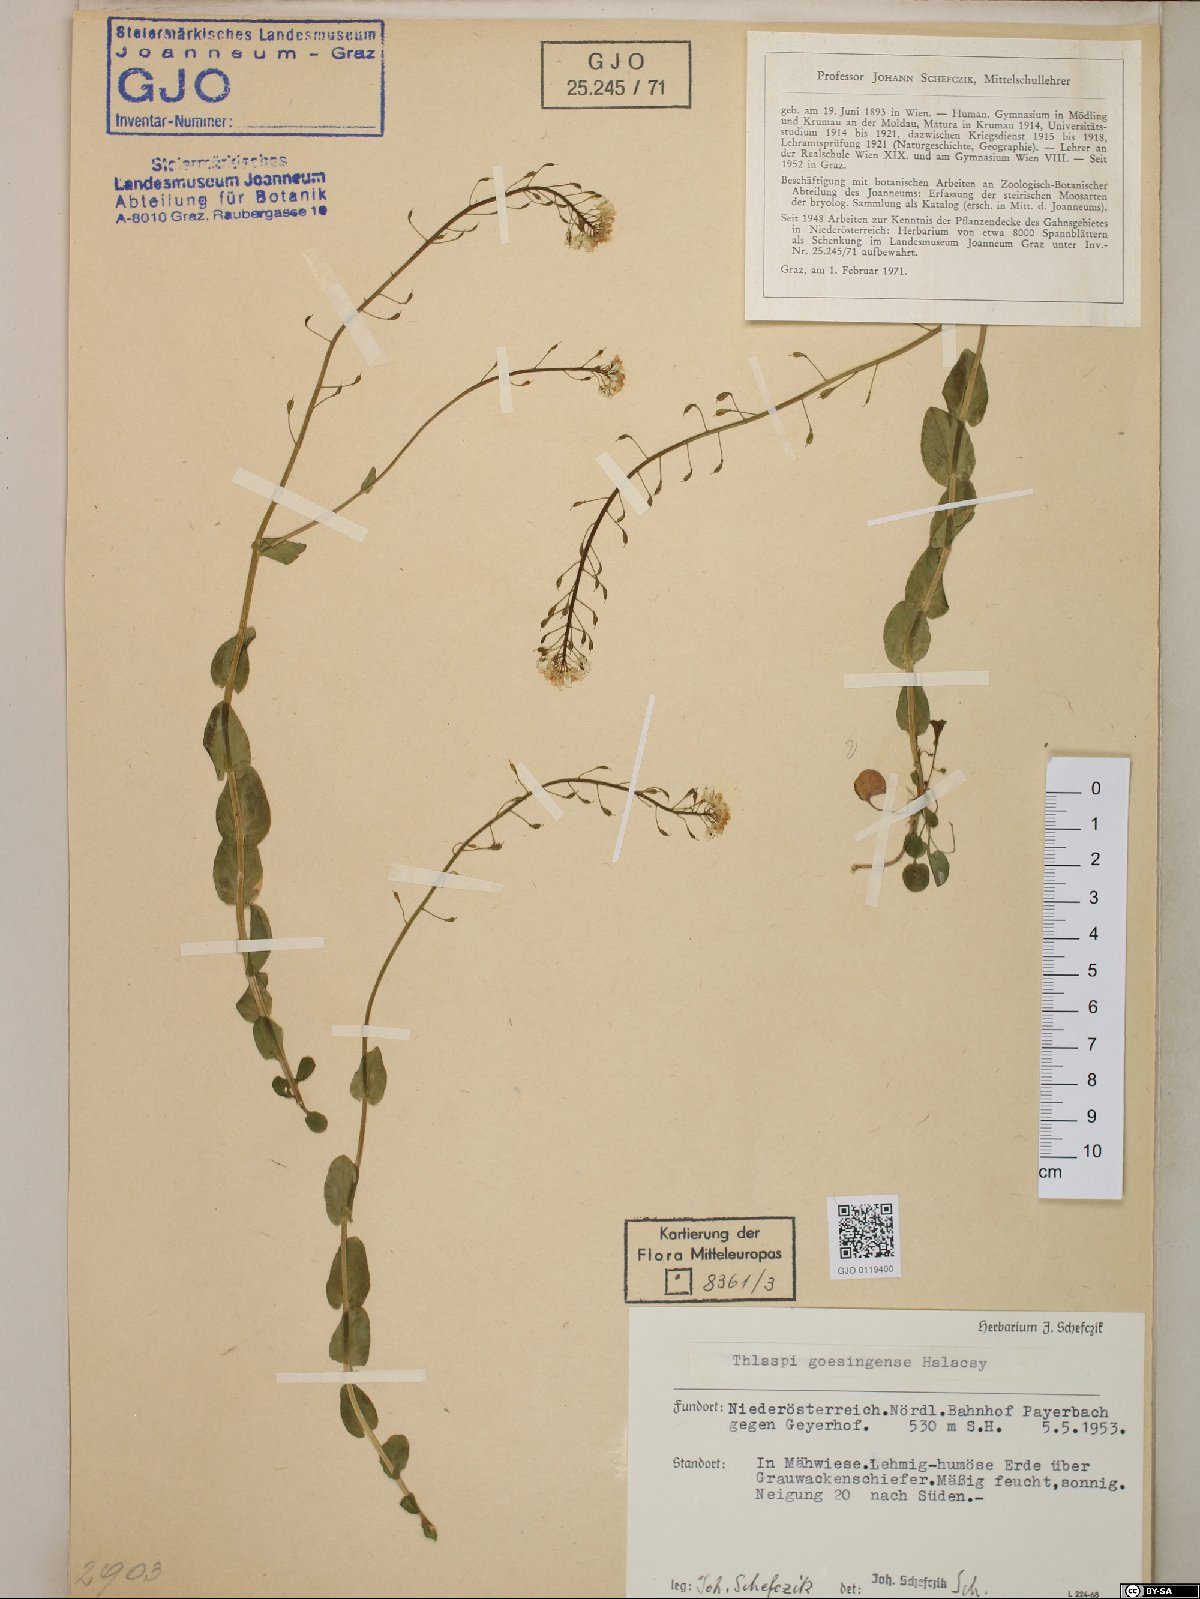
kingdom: Plantae
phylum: Tracheophyta
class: Magnoliopsida
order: Brassicales
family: Brassicaceae
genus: Noccaea
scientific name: Noccaea goesingensis
